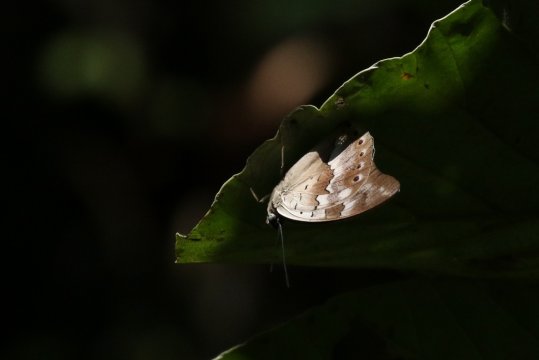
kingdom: Animalia
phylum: Arthropoda
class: Insecta
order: Lepidoptera
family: Nymphalidae
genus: Prepona
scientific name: Prepona demophoon
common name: Two-spotted Prepona
